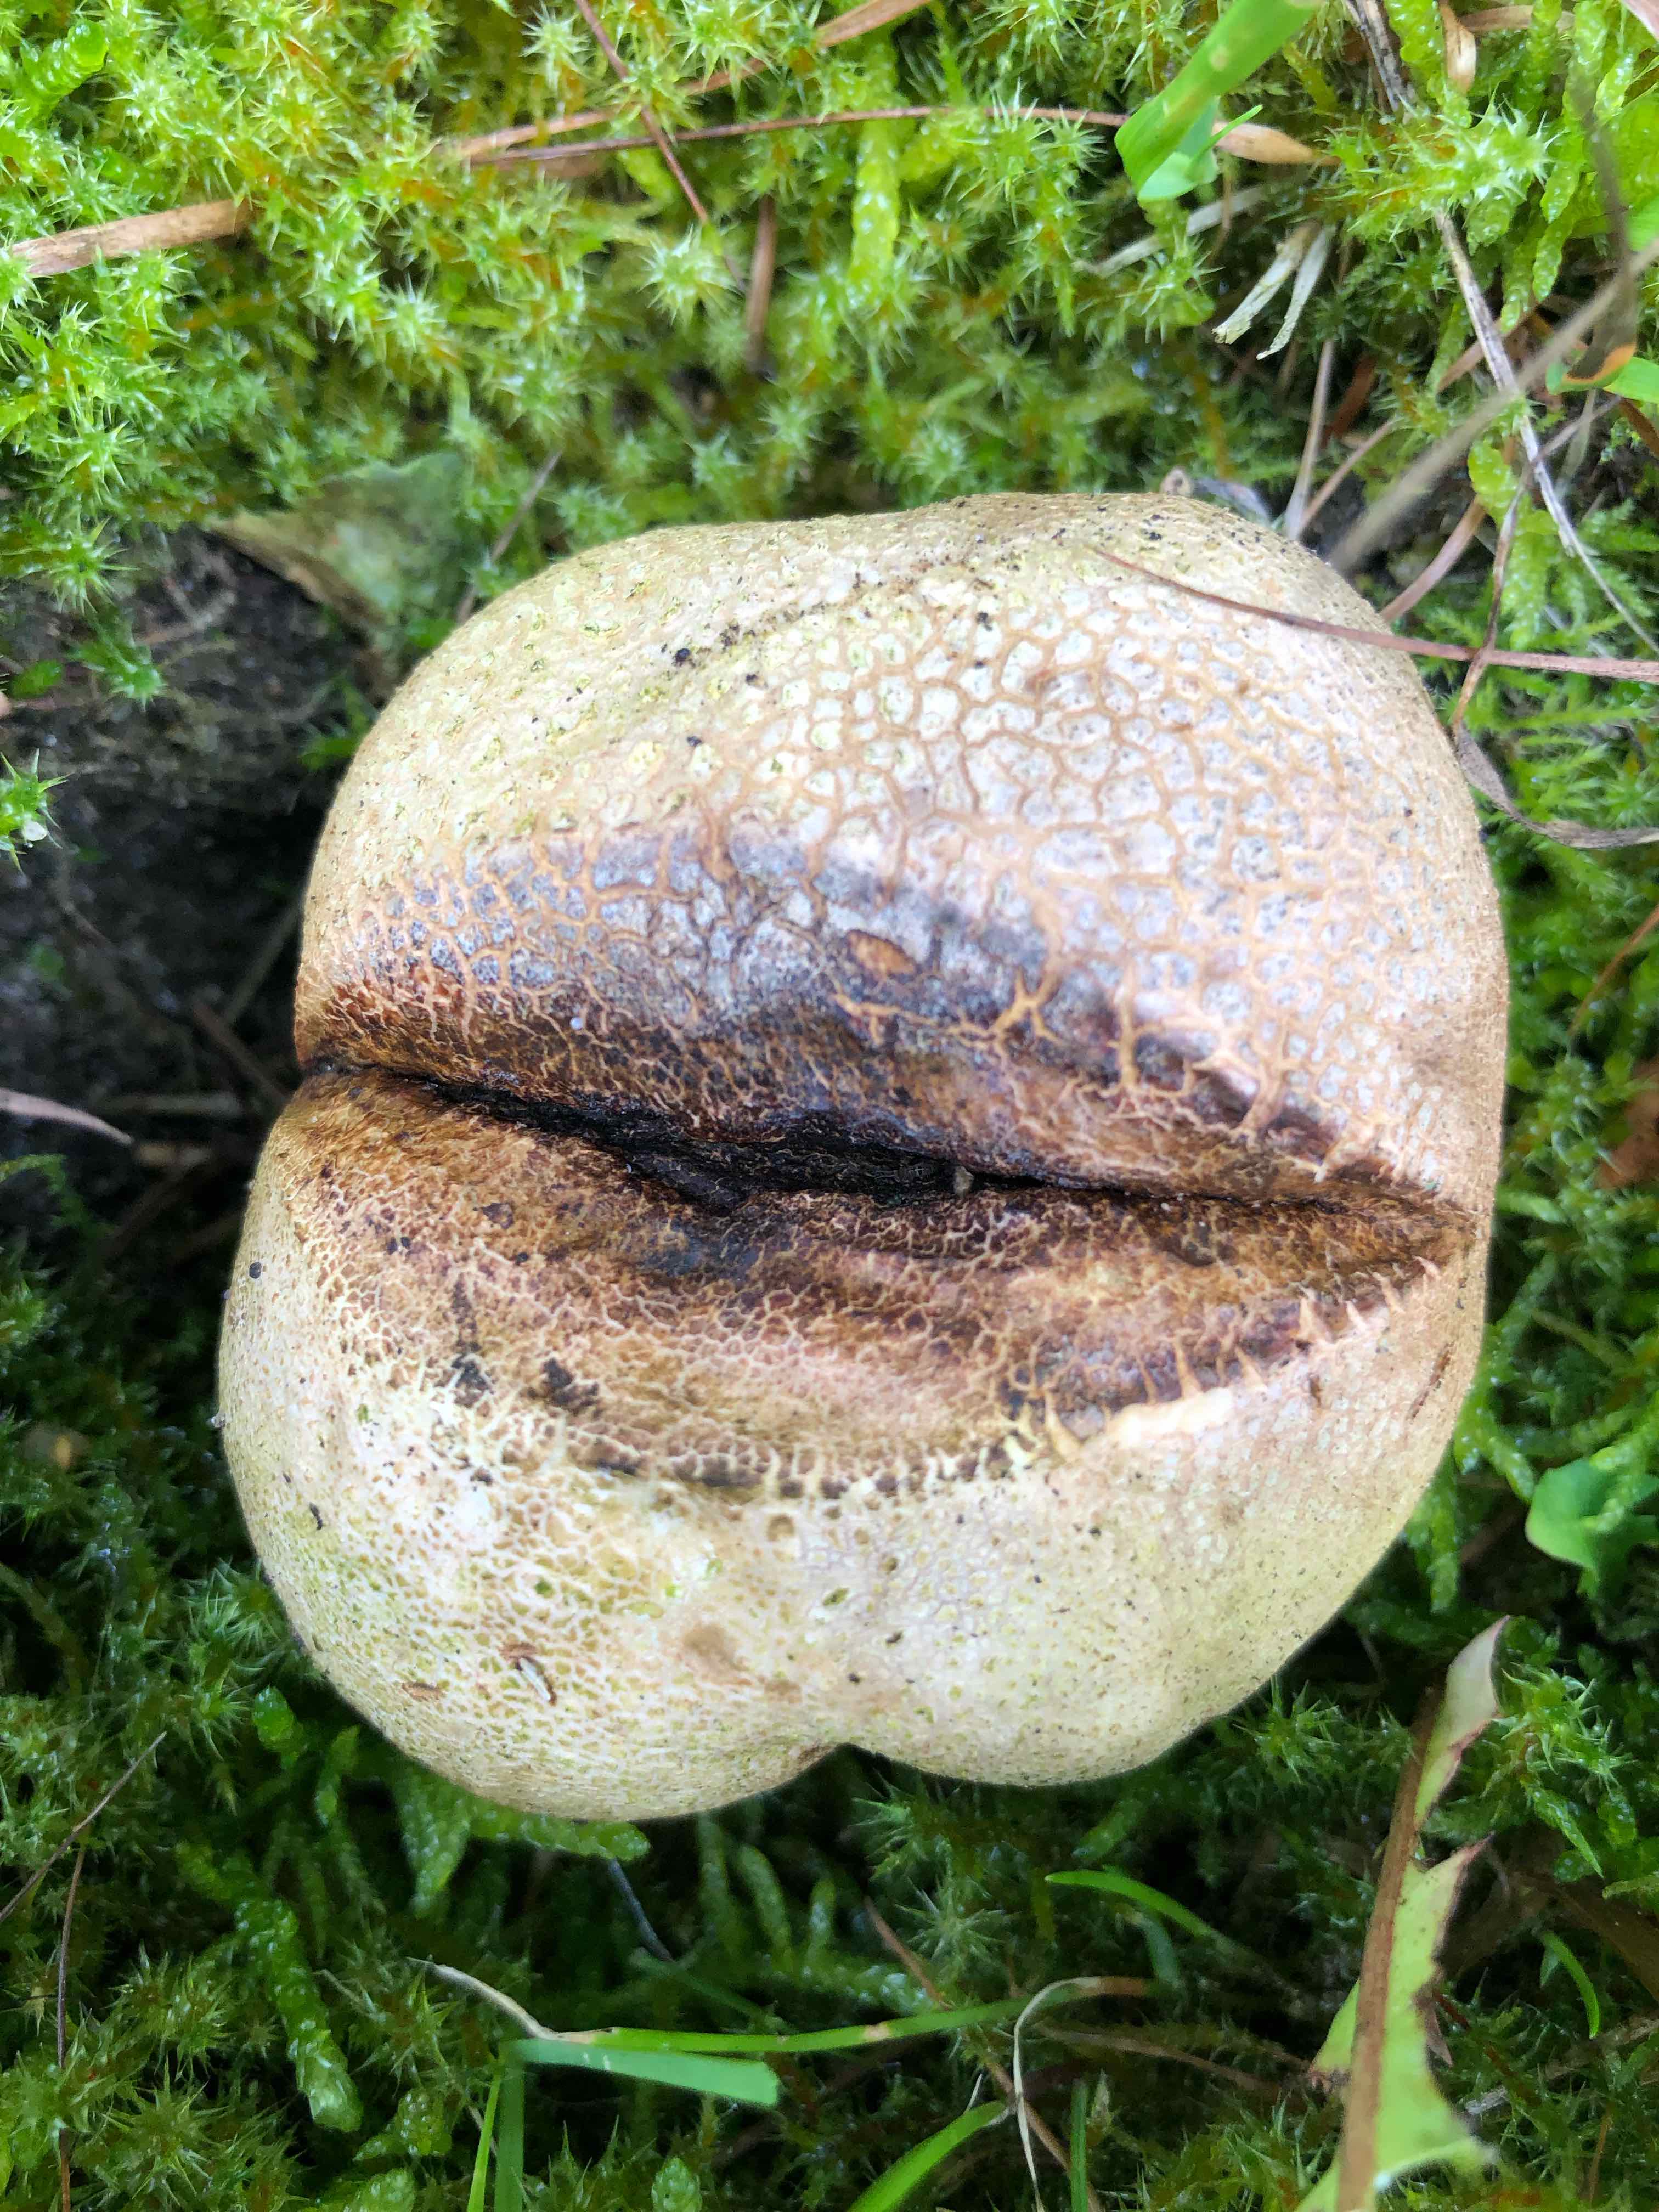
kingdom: Fungi
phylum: Basidiomycota
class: Agaricomycetes
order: Boletales
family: Sclerodermataceae
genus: Scleroderma
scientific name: Scleroderma verrucosum
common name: stilket bruskbold
